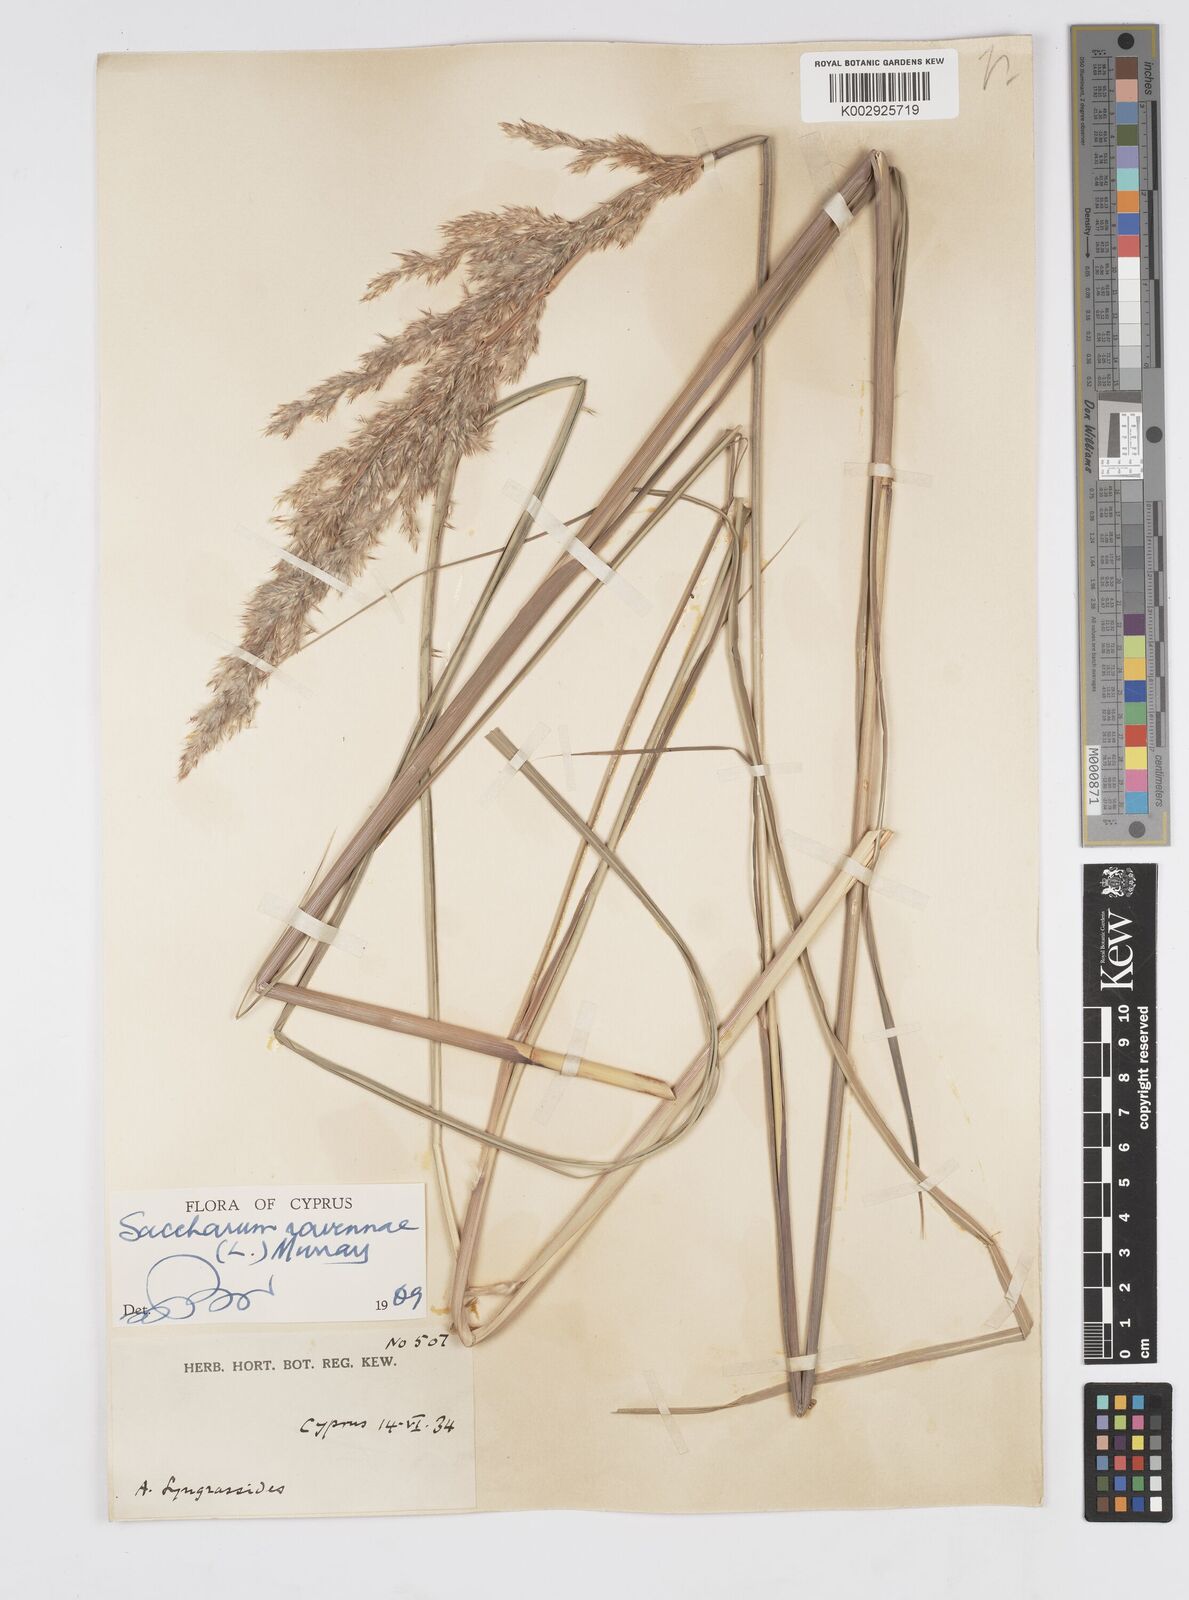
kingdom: Plantae
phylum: Tracheophyta
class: Liliopsida
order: Poales
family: Poaceae
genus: Tripidium
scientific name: Tripidium ravennae
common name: Ravenna grass
